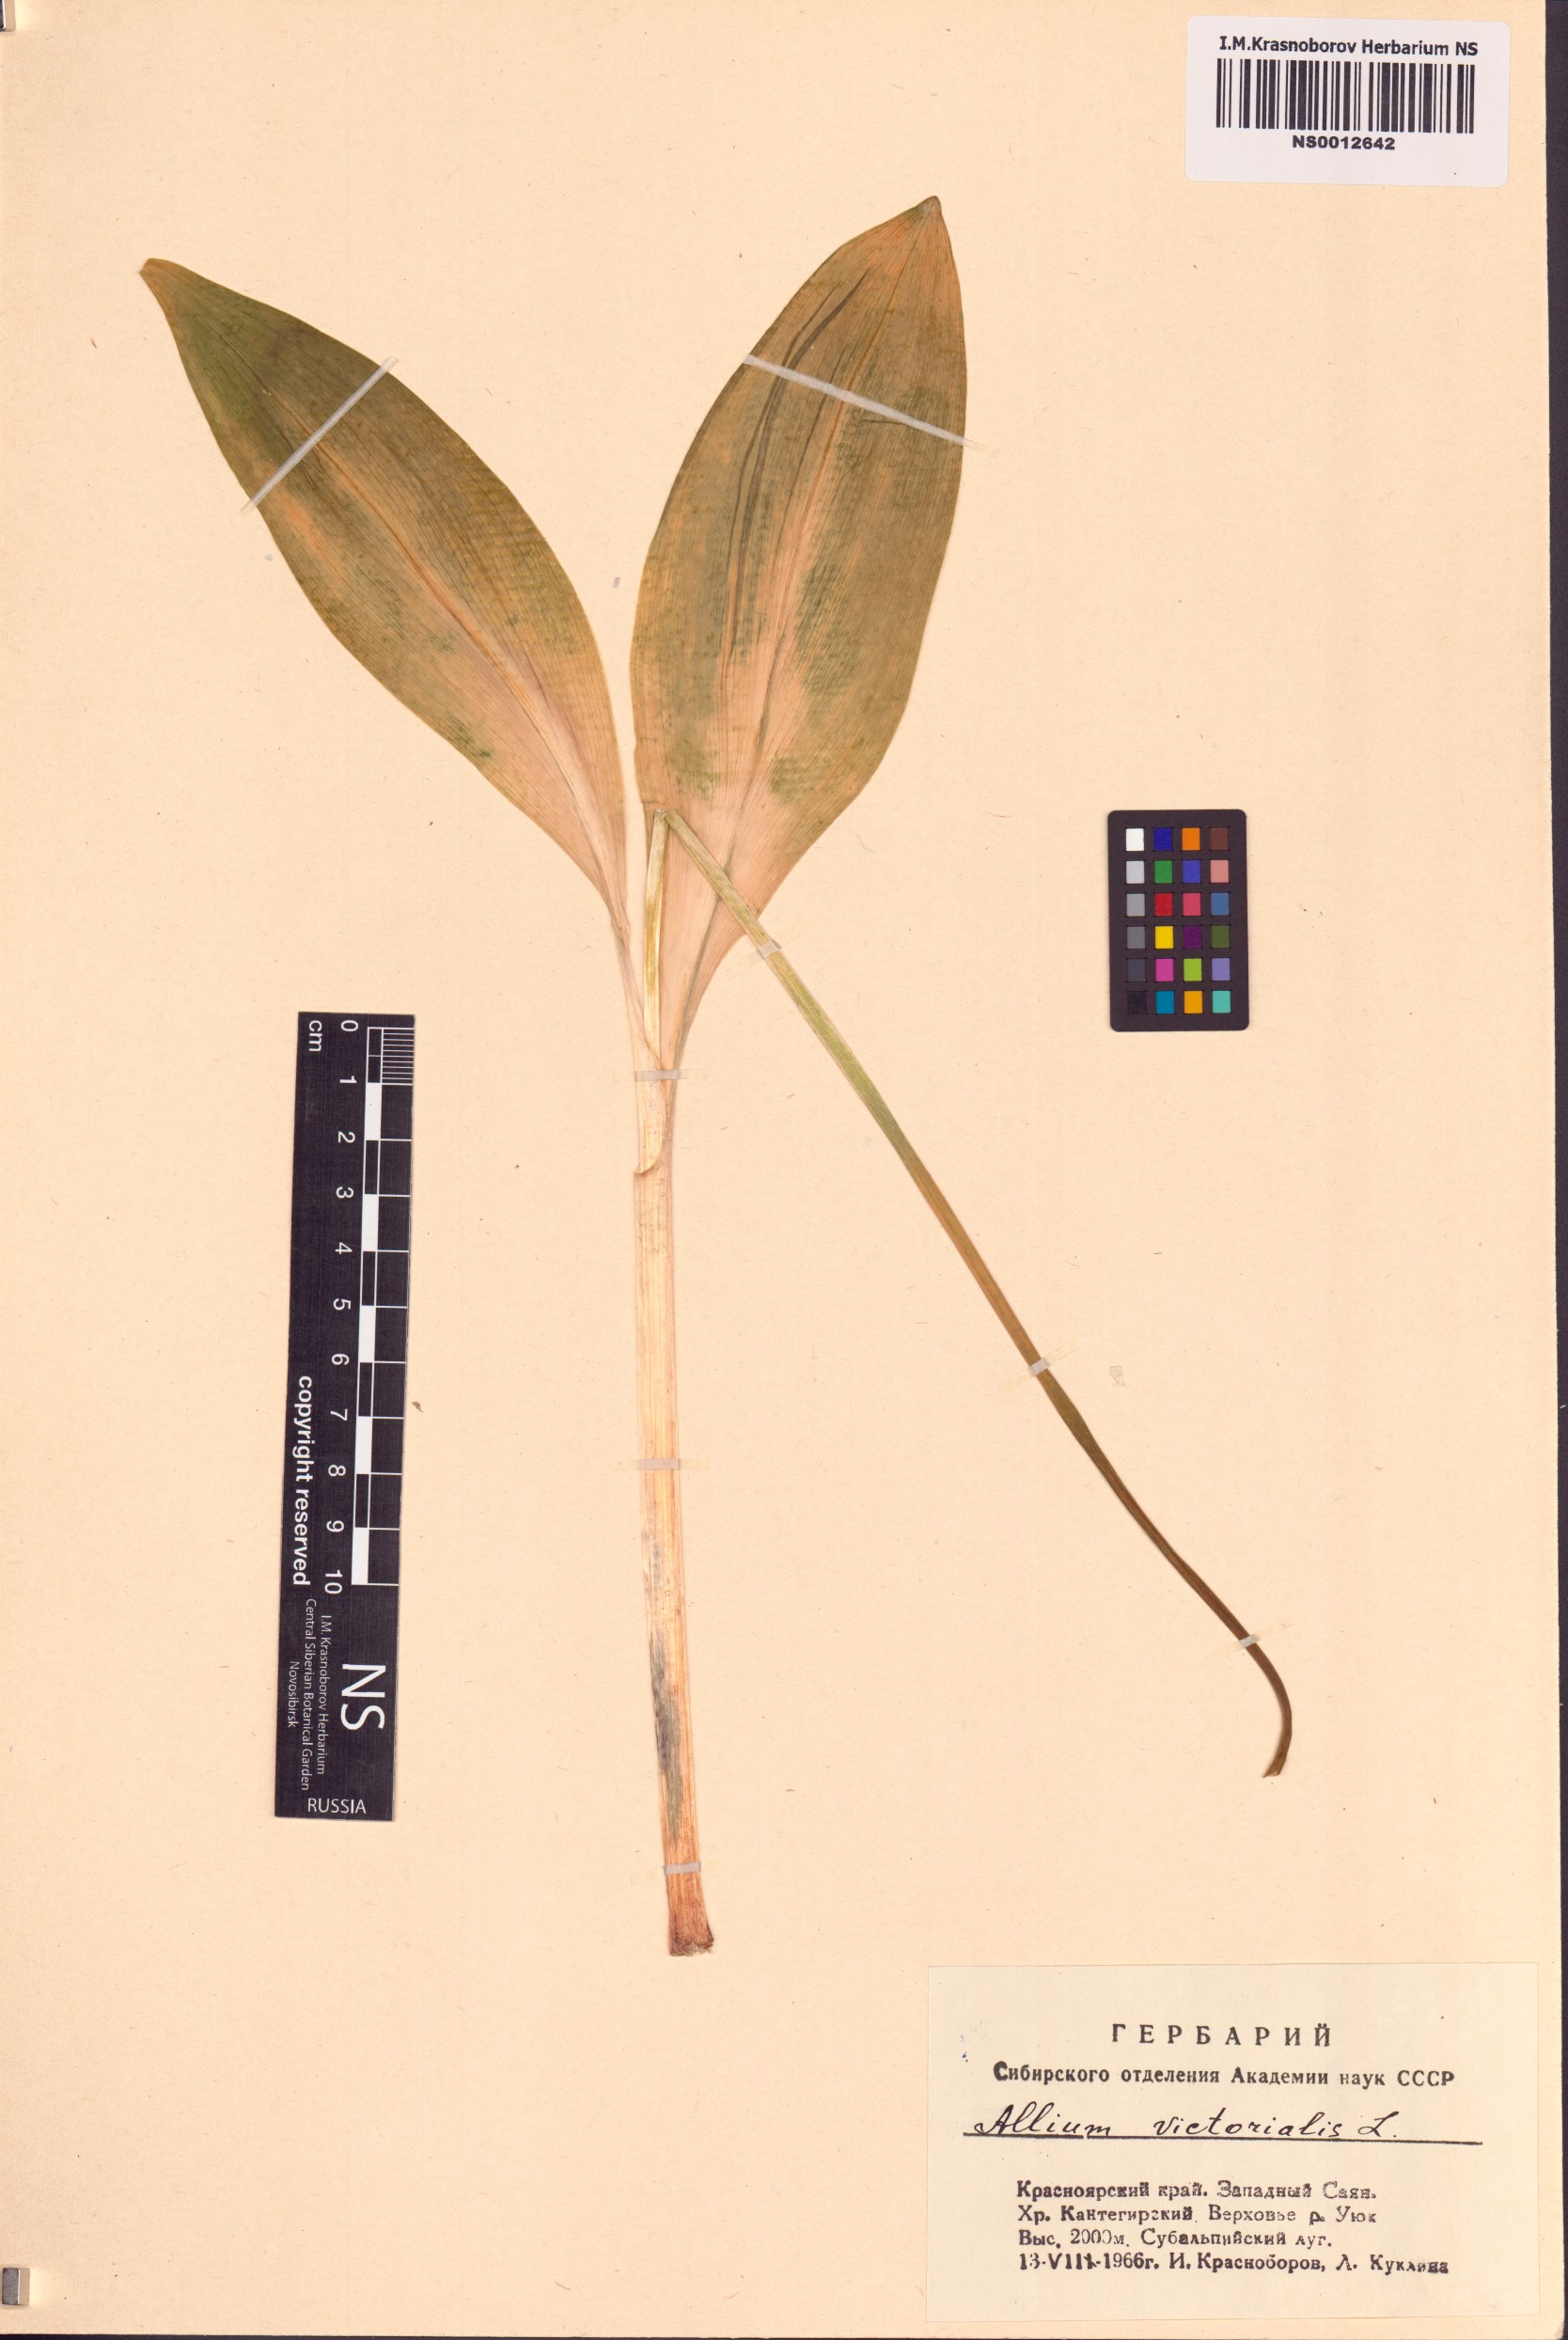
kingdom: Plantae
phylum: Tracheophyta
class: Liliopsida
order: Asparagales
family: Amaryllidaceae
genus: Allium
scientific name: Allium microdictyon
